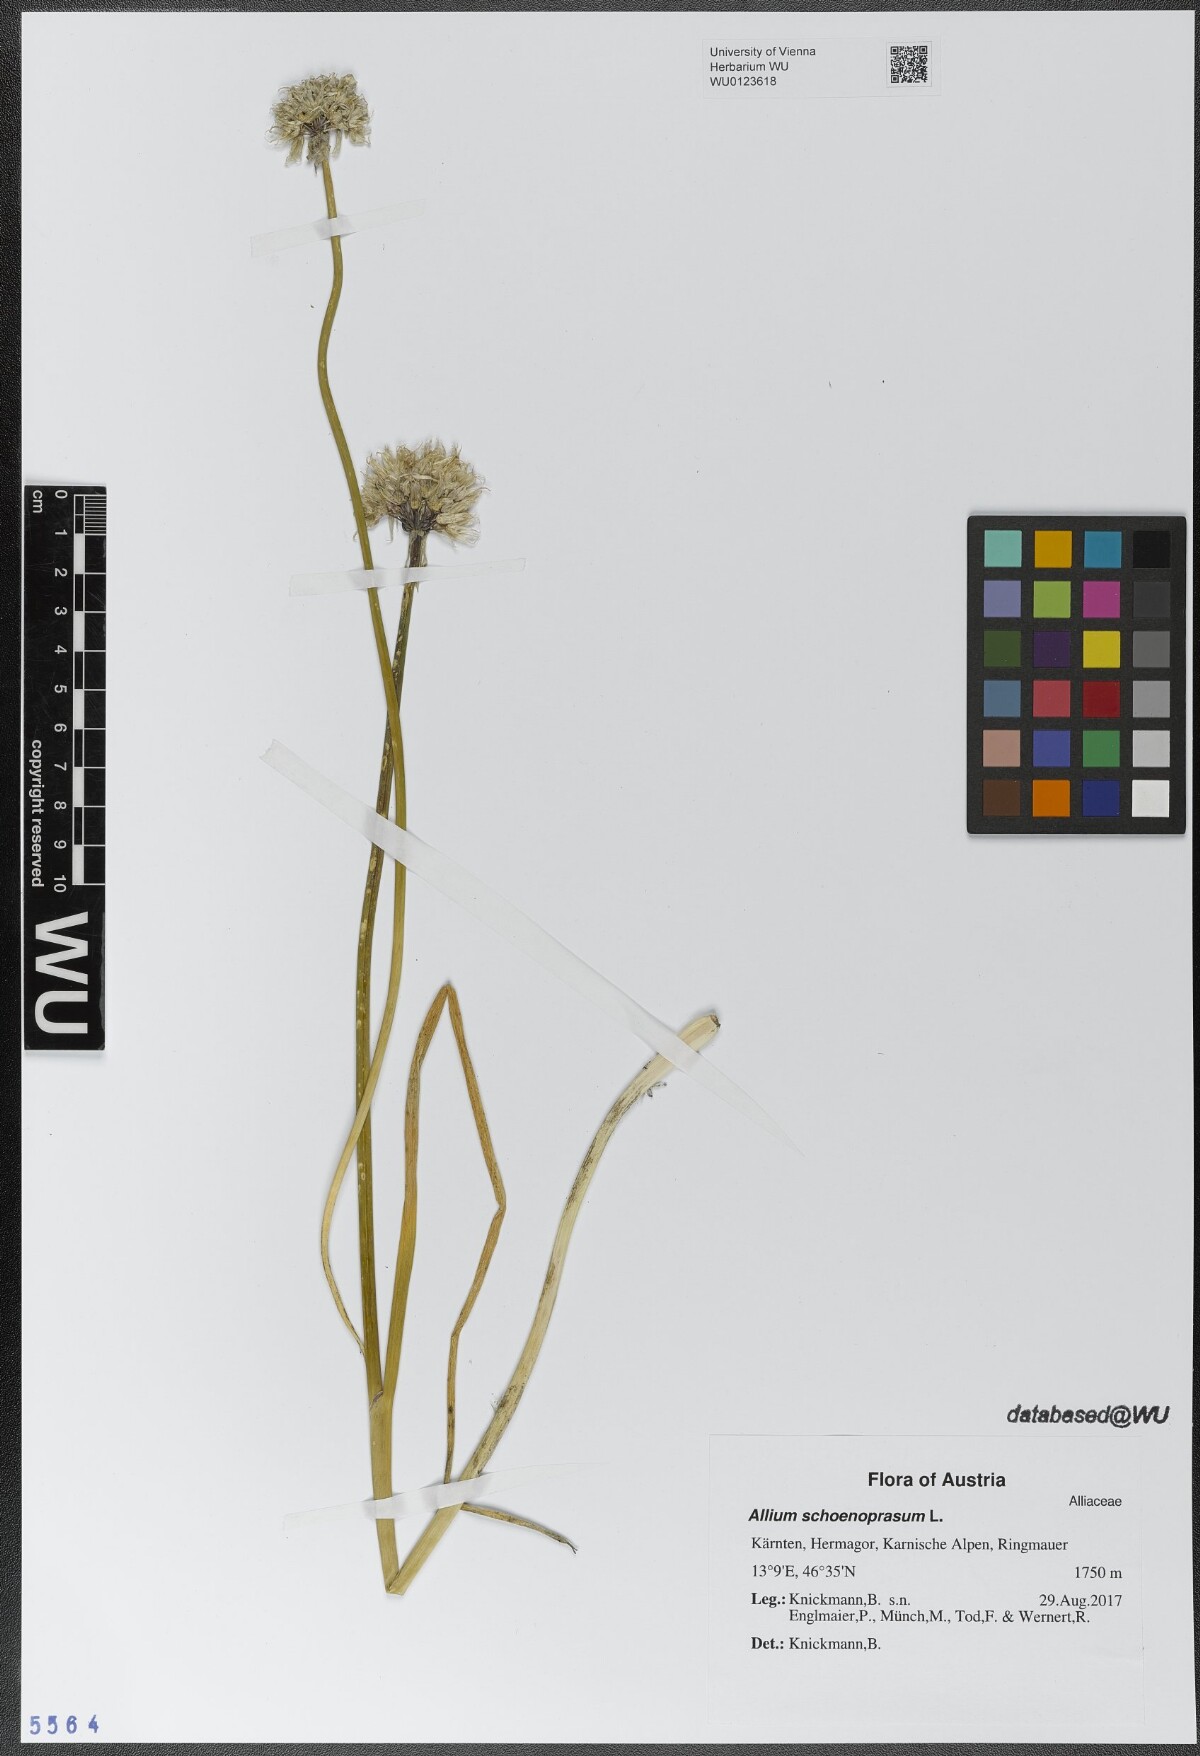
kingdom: Plantae
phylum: Tracheophyta
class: Liliopsida
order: Asparagales
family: Amaryllidaceae
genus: Allium
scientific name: Allium schoenoprasum
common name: Chives
